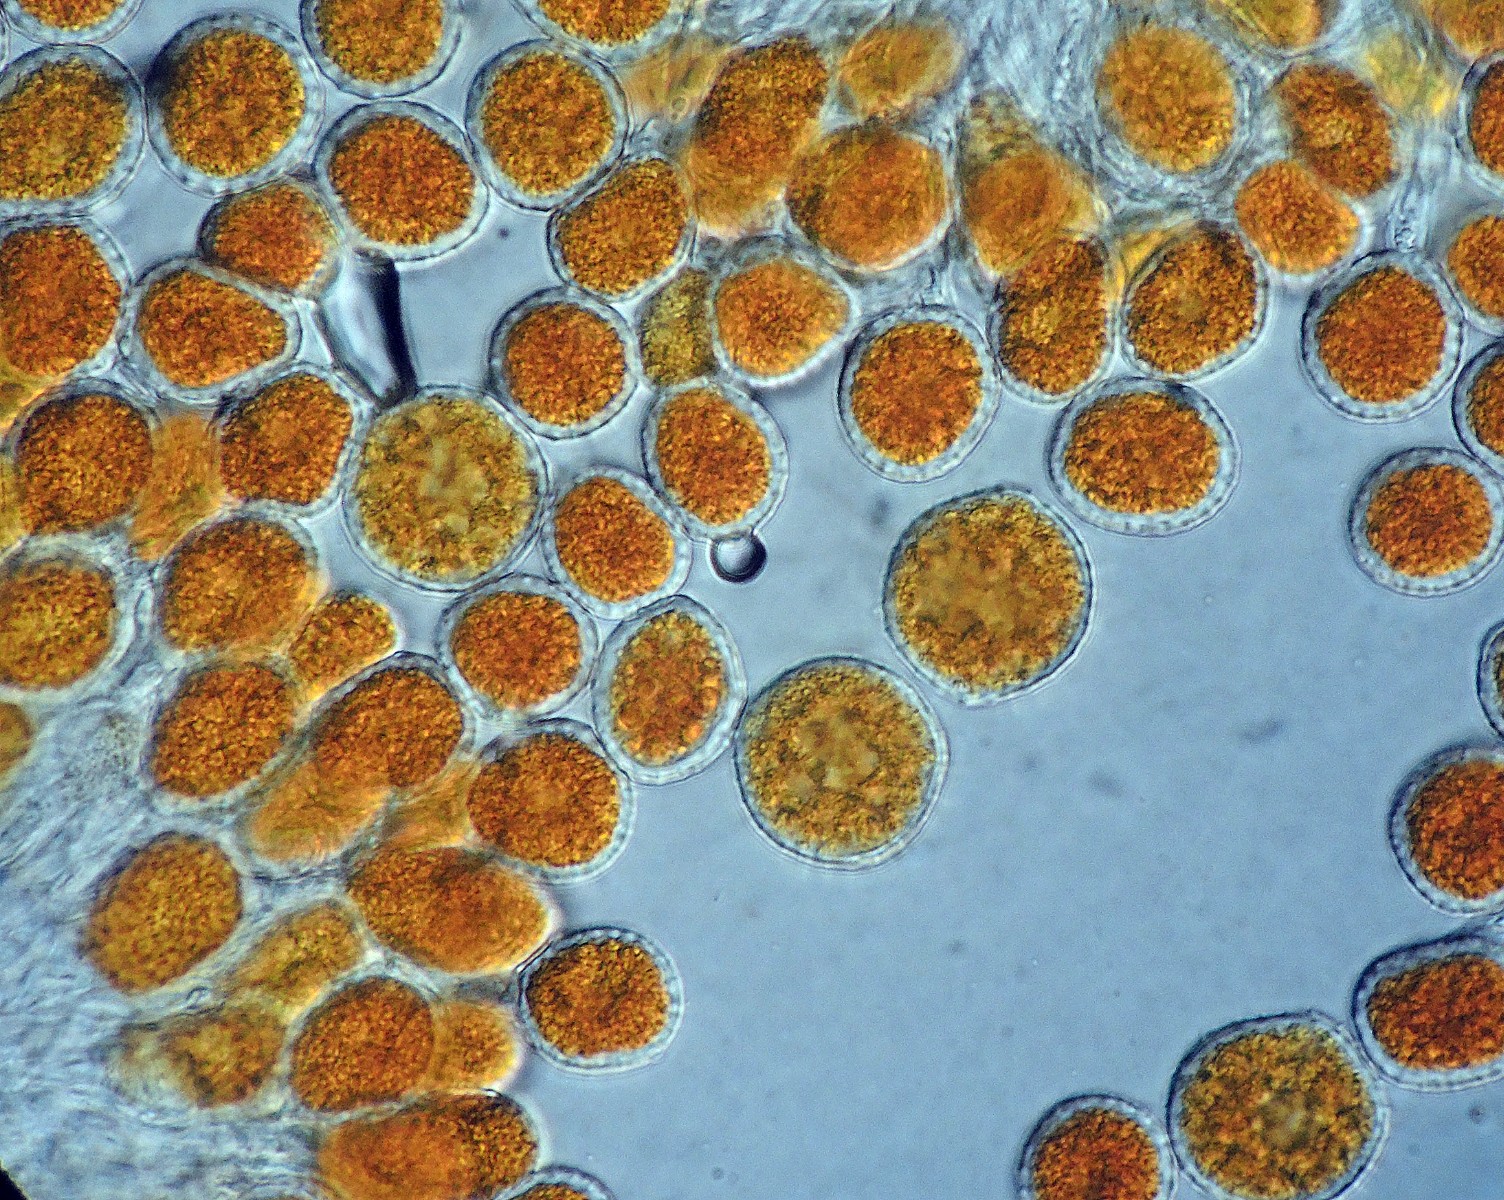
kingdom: Fungi
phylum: Basidiomycota
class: Pucciniomycetes
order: Pucciniales
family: Phragmidiaceae
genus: Phragmidium
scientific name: Phragmidium potentillae
